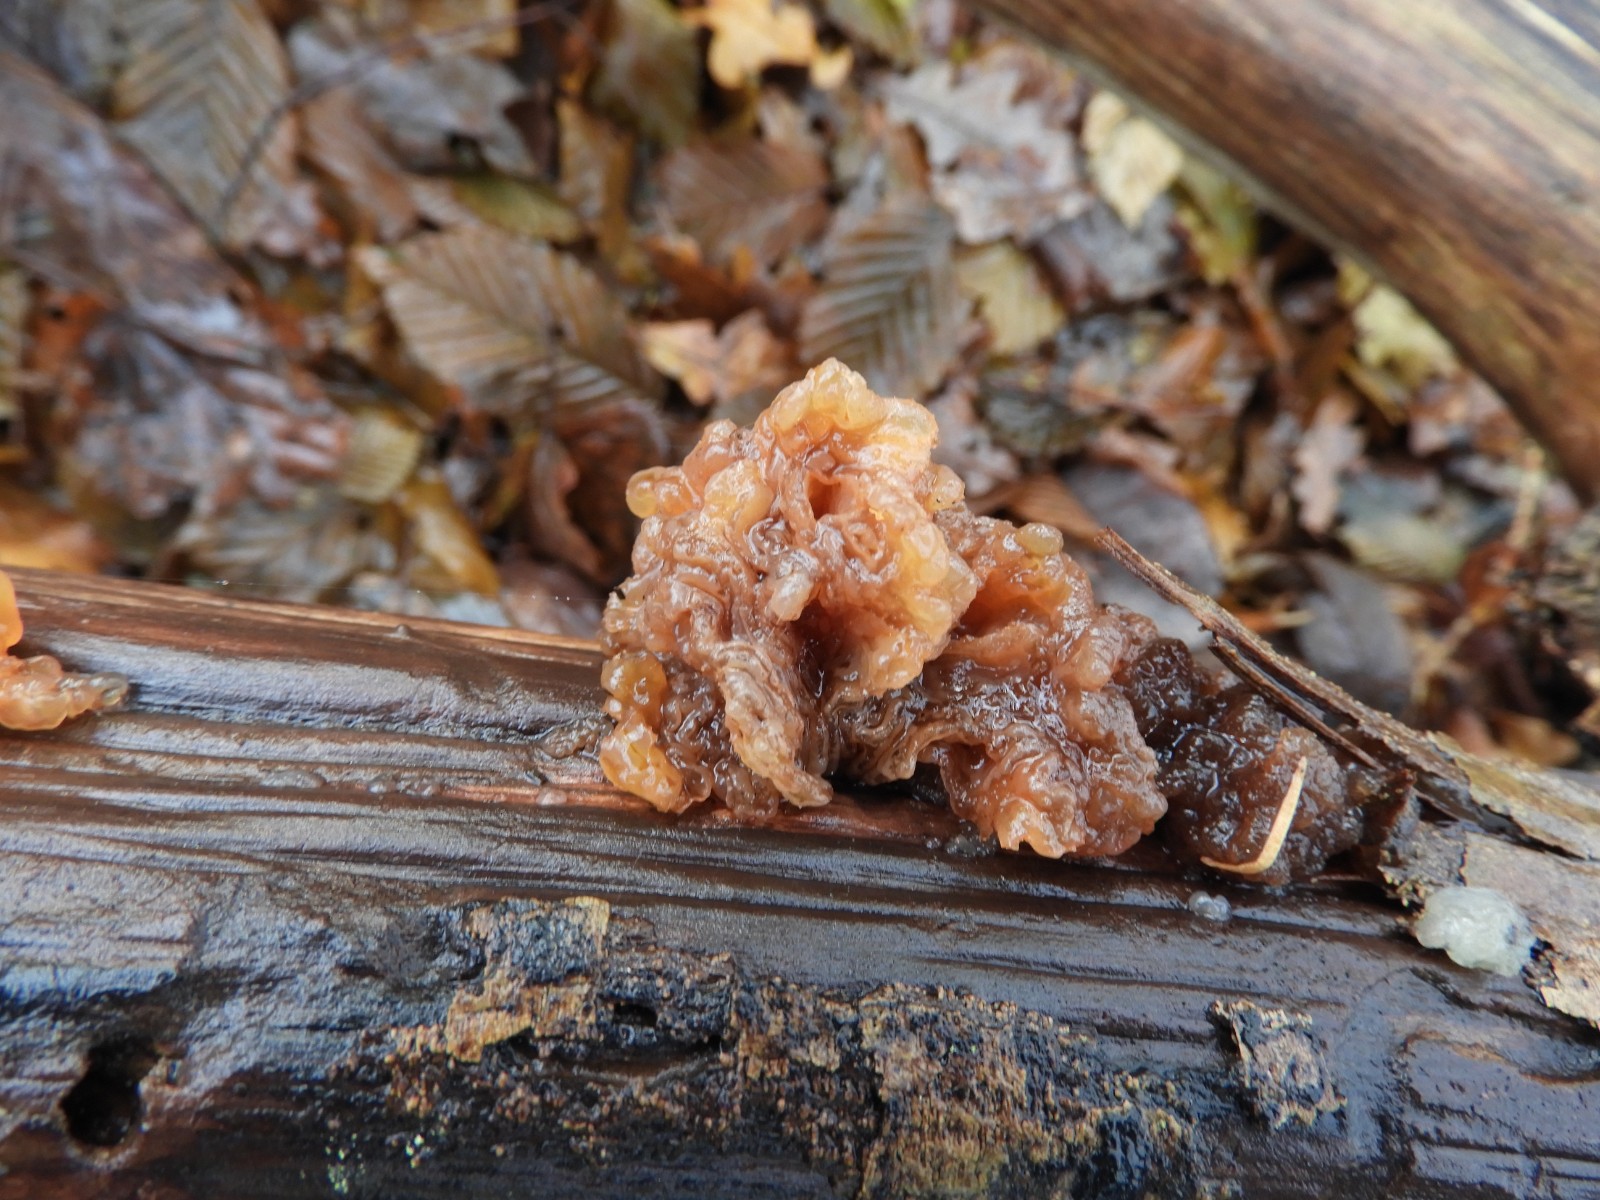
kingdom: Fungi
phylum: Basidiomycota
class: Tremellomycetes
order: Tremellales
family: Tremellaceae
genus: Phaeotremella
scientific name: Phaeotremella frondosa
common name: kæmpe-bævresvamp
